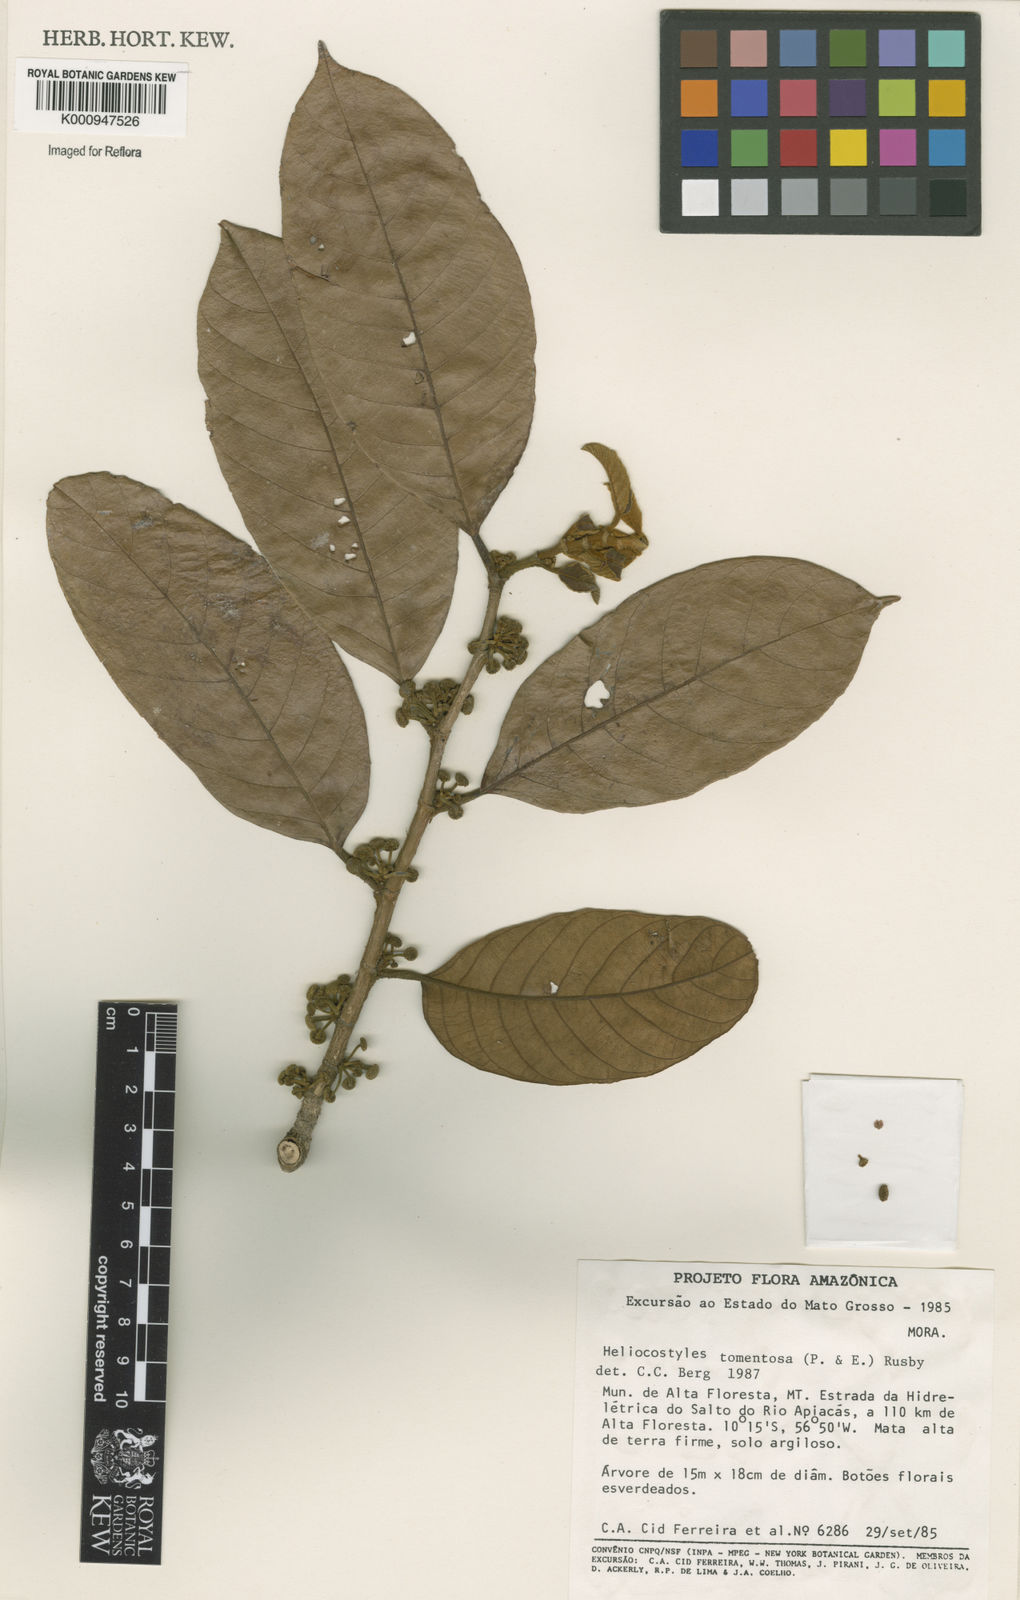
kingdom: Plantae
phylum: Tracheophyta
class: Magnoliopsida
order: Rosales
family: Moraceae
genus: Helicostylis
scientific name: Helicostylis
